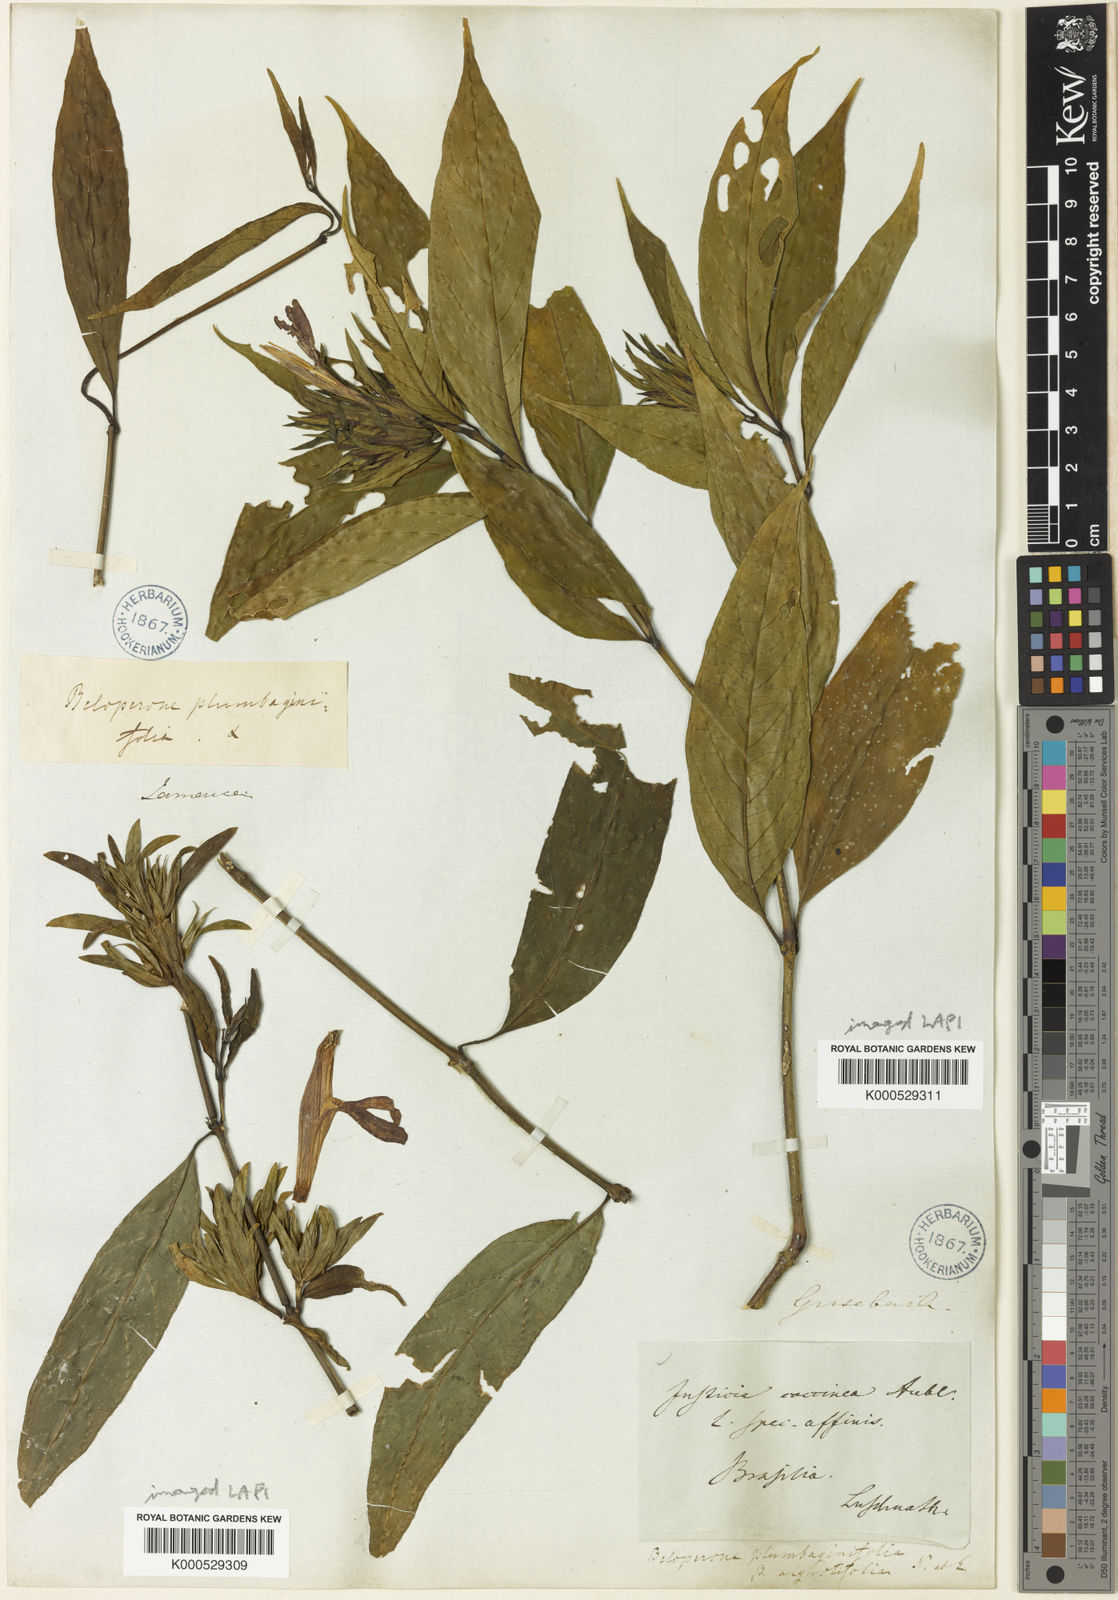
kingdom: Plantae
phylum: Tracheophyta
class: Magnoliopsida
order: Lamiales
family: Acanthaceae
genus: Justicia
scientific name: Justicia plumbaginifolia
